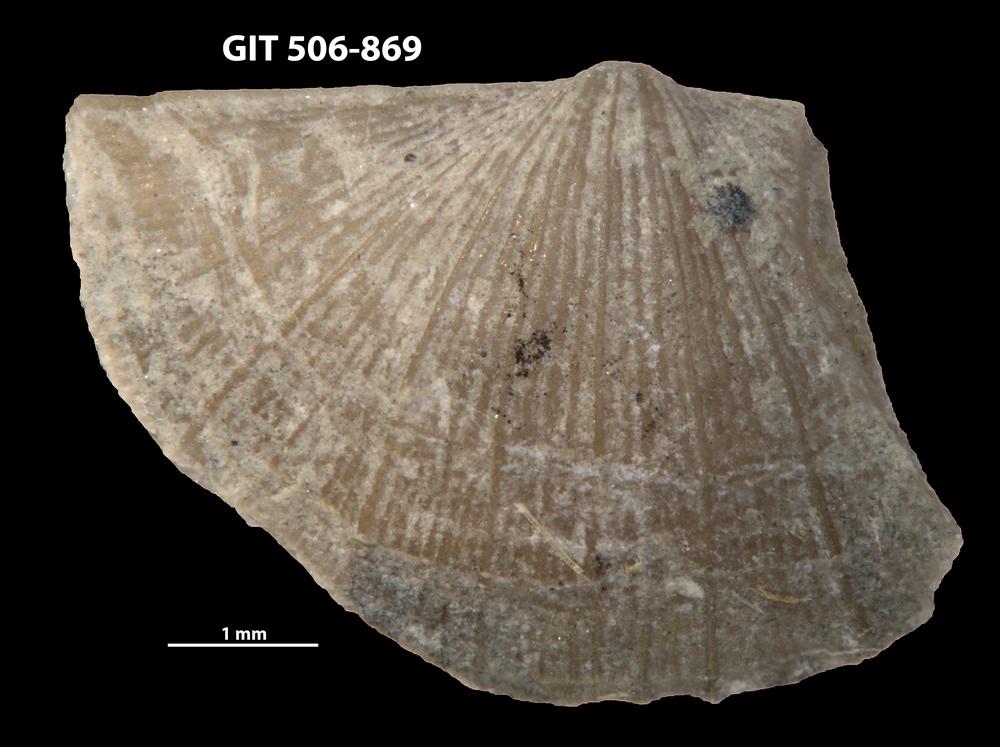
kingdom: Animalia
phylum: Brachiopoda
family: Oldhaminidae
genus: Eoplectodonta
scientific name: Eoplectodonta exceptionis
